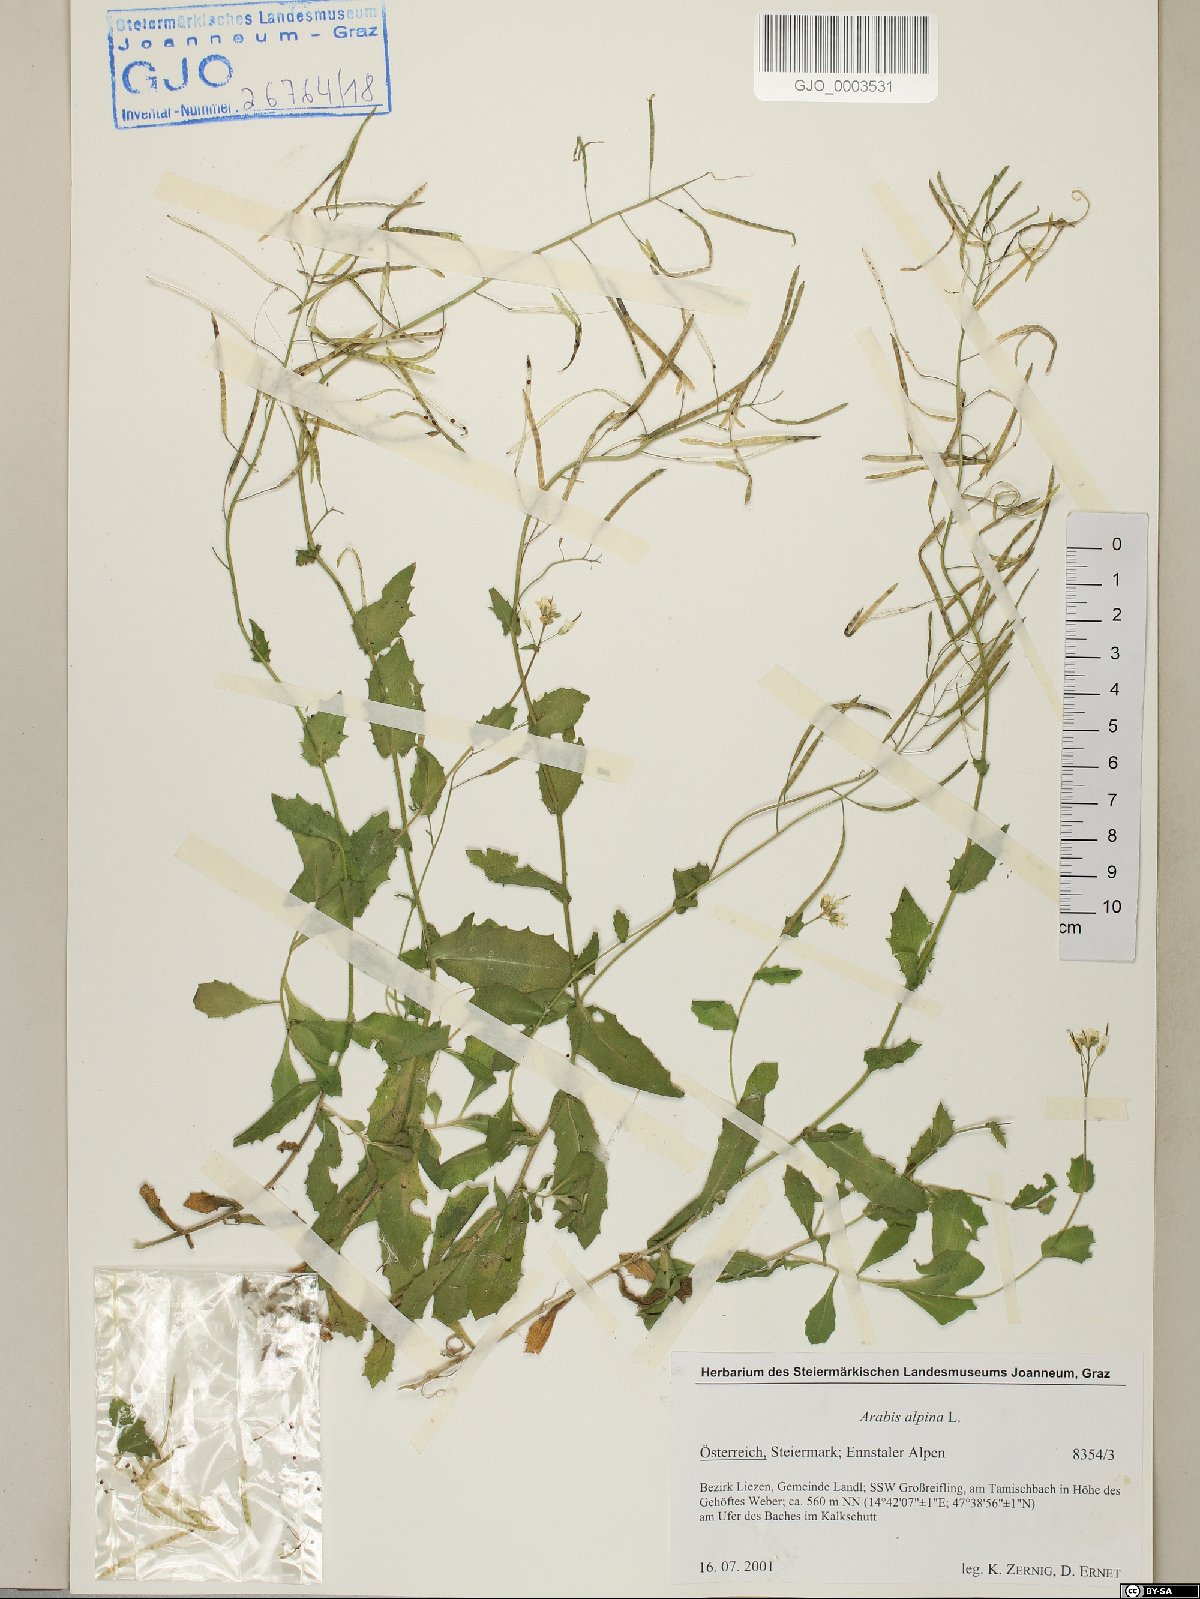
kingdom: Plantae
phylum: Tracheophyta
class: Magnoliopsida
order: Brassicales
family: Brassicaceae
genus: Arabis
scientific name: Arabis alpina
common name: Alpine rock-cress
